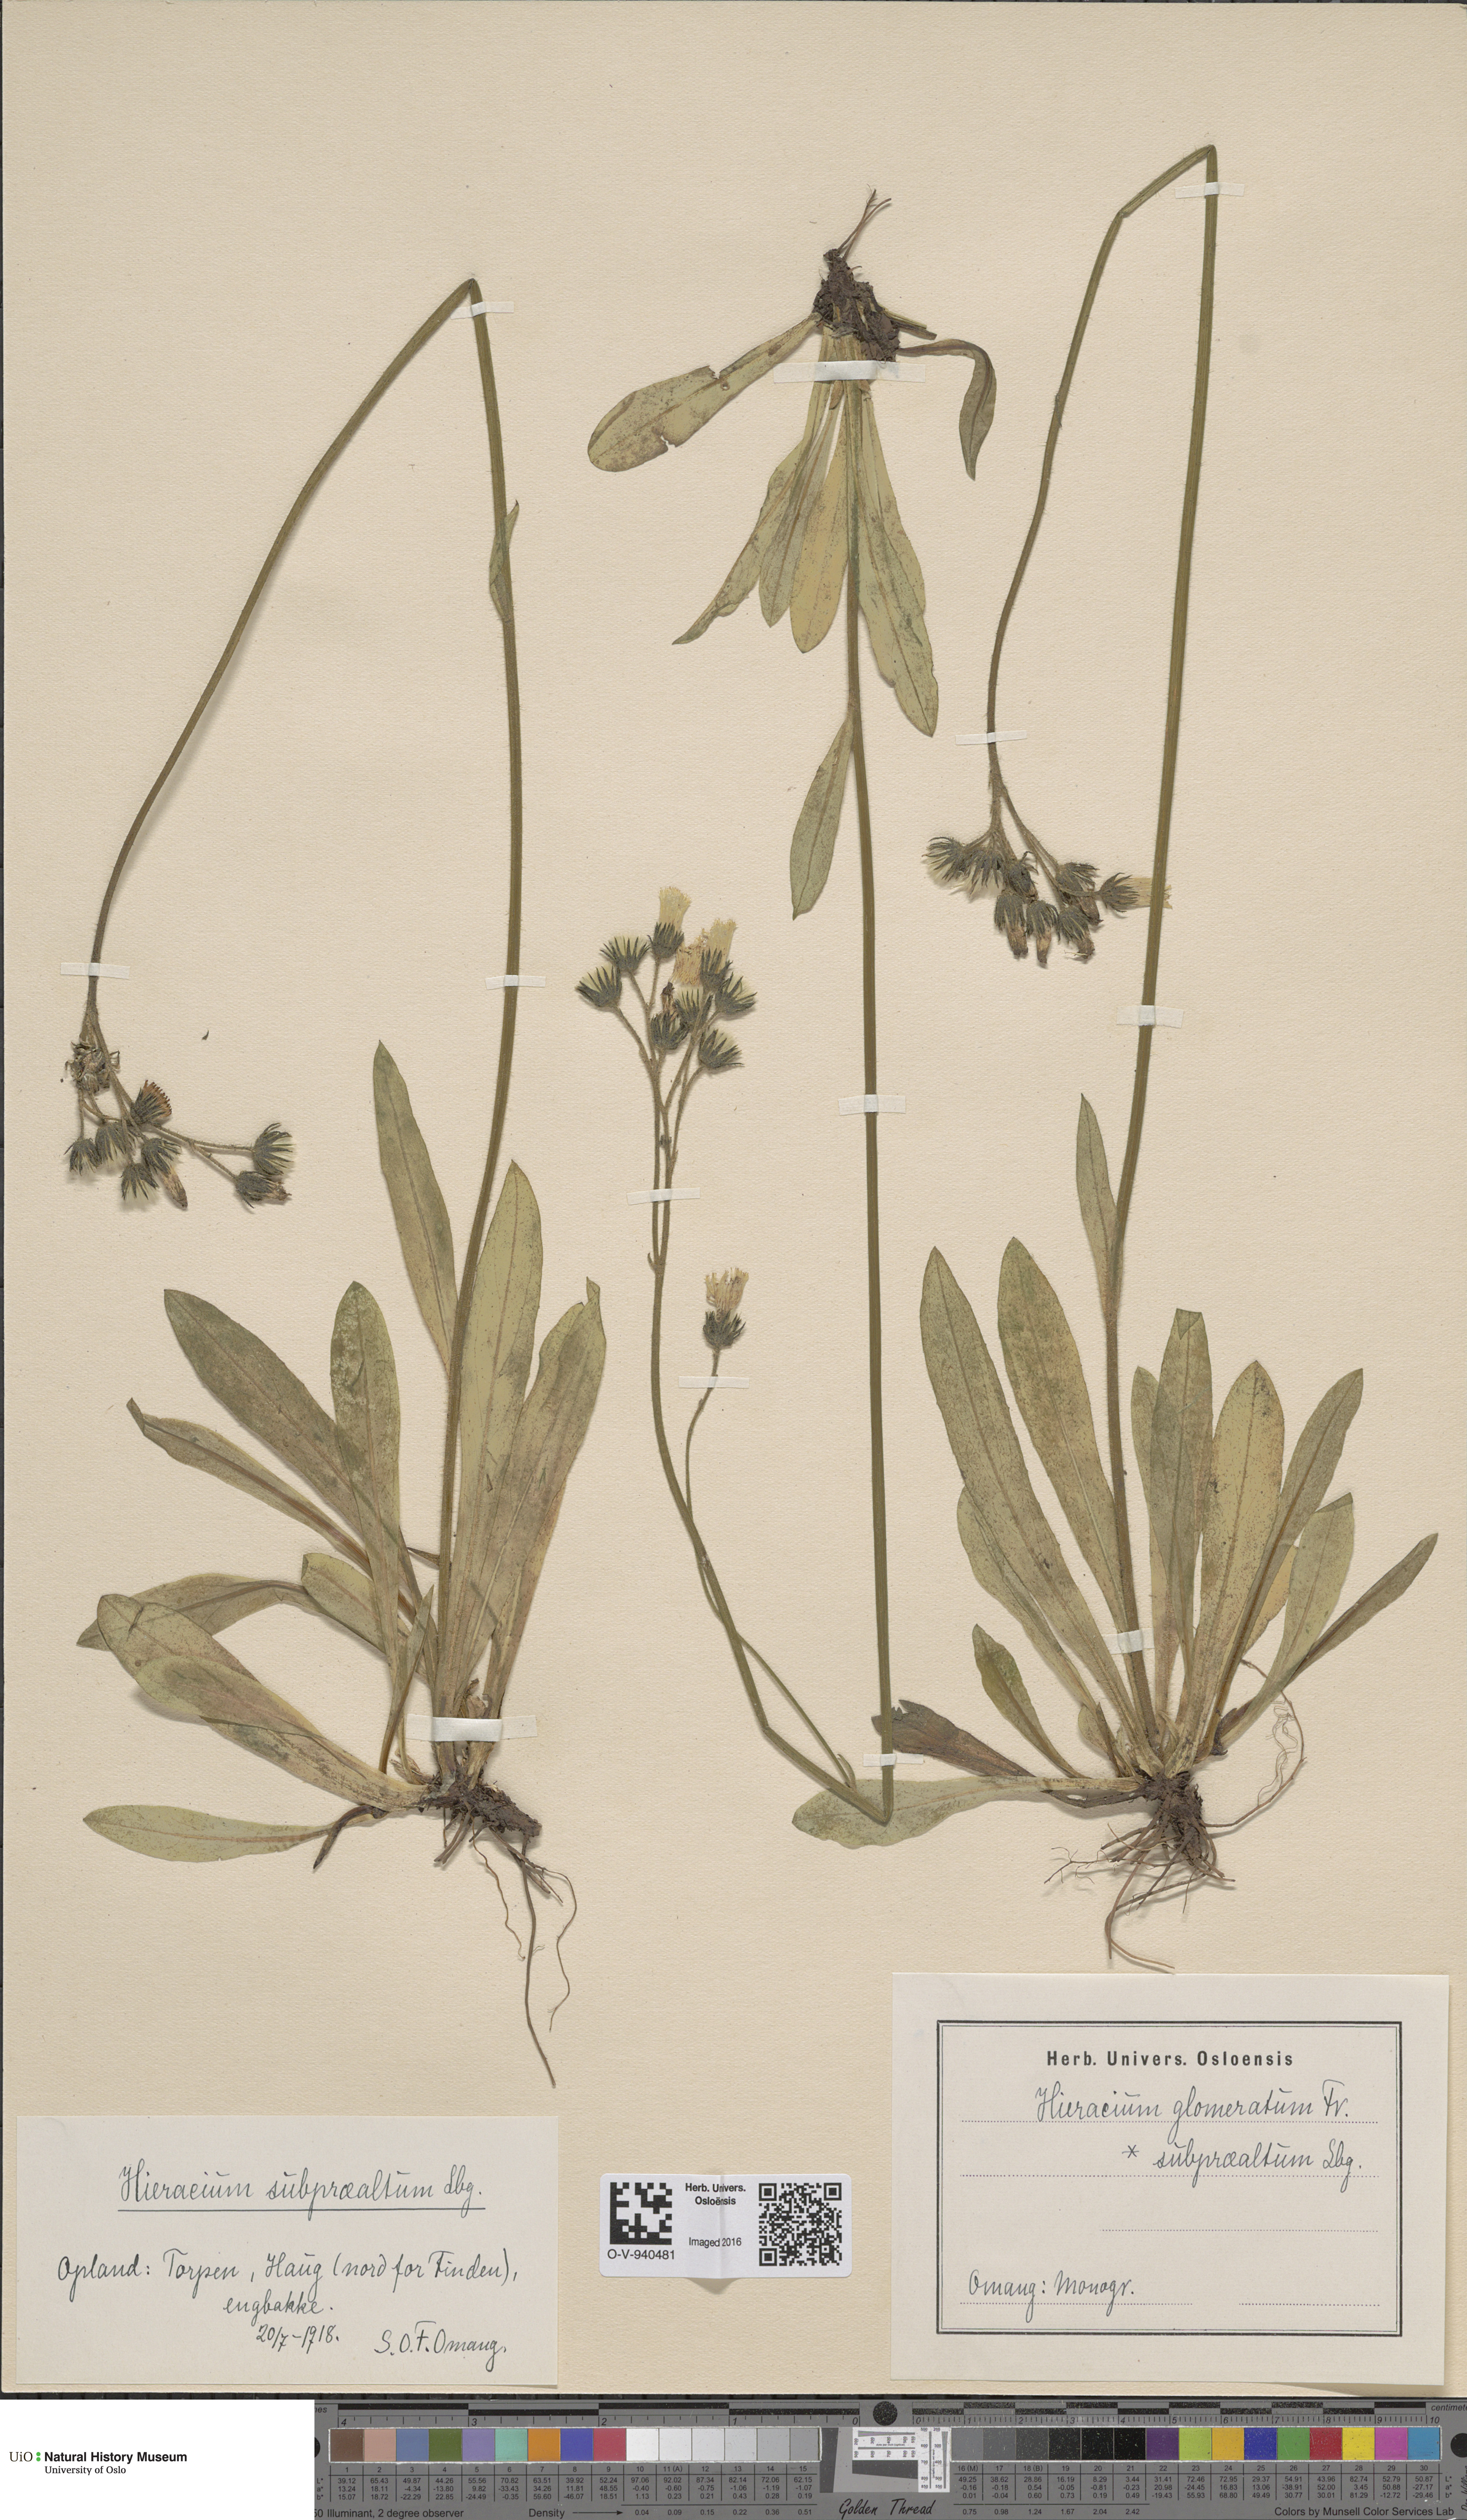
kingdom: Plantae
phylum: Tracheophyta
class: Magnoliopsida
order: Asterales
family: Asteraceae
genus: Pilosella
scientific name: Pilosella glomerata
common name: Queen devil hawkweed
